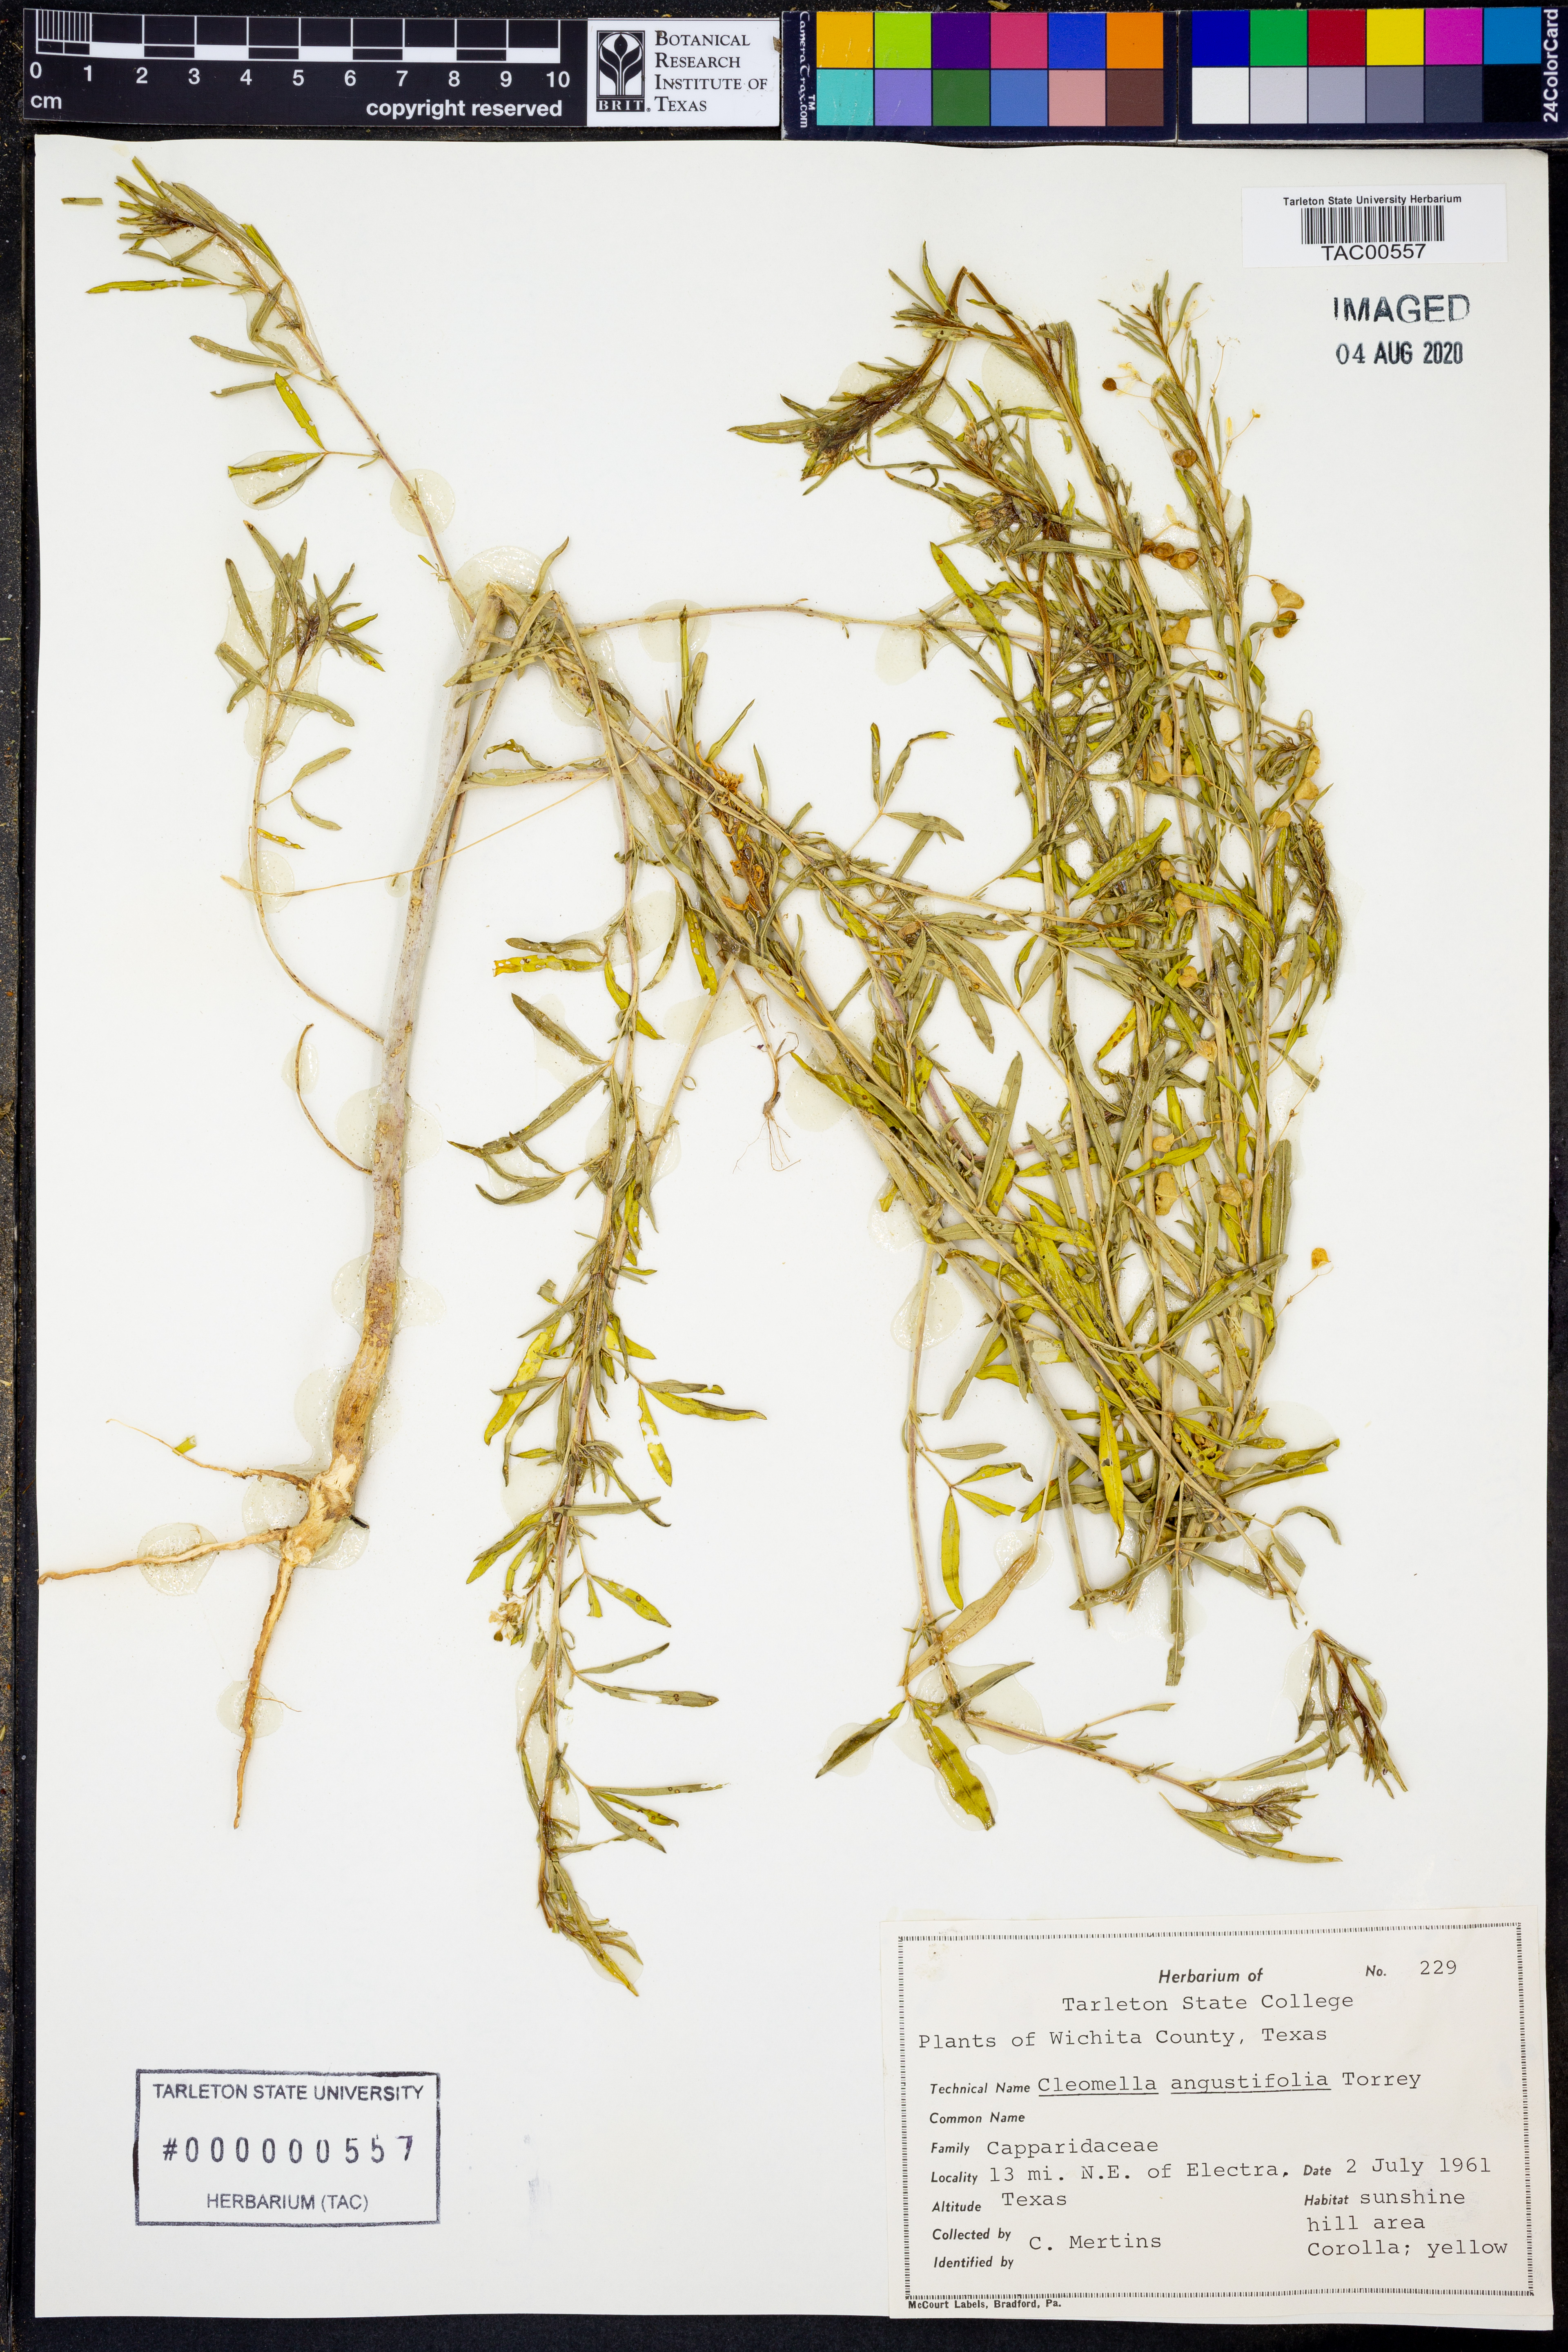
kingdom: Plantae
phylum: Tracheophyta
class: Magnoliopsida
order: Brassicales
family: Cleomaceae
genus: Cleomella
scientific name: Cleomella angustifolia
